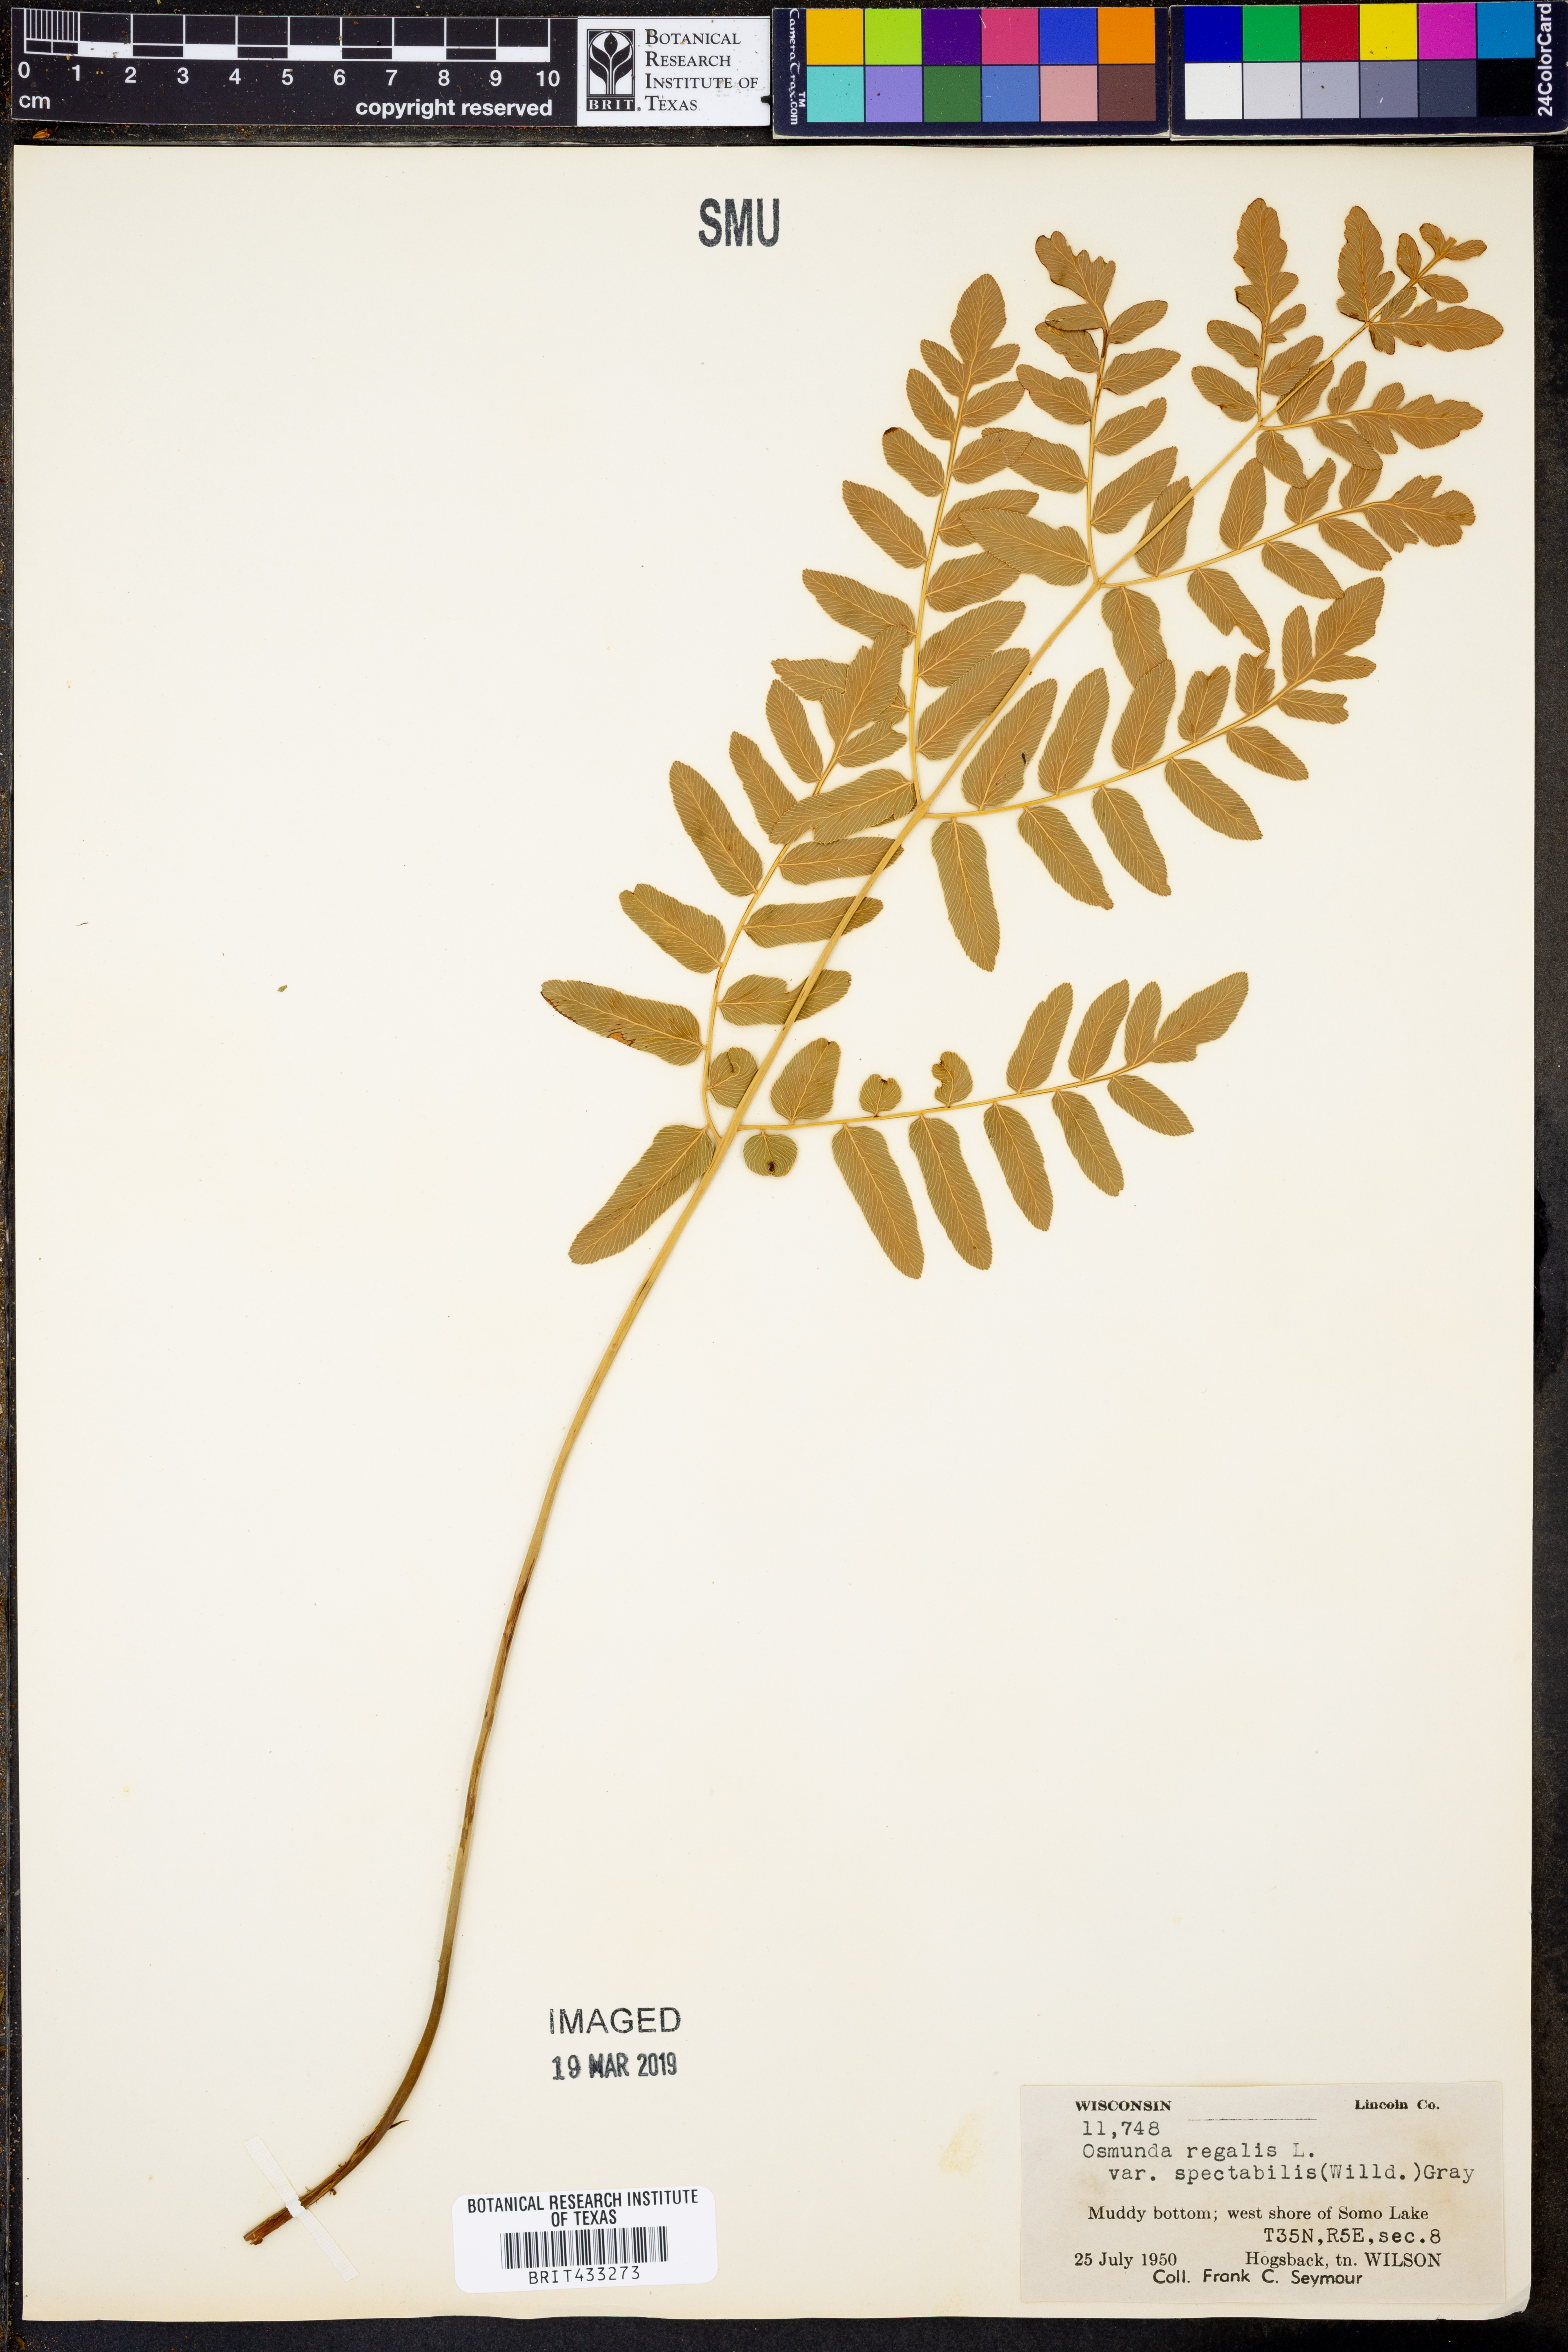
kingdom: Plantae
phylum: Tracheophyta
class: Polypodiopsida
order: Osmundales
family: Osmundaceae
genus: Osmunda
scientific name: Osmunda spectabilis
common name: American royal fern
